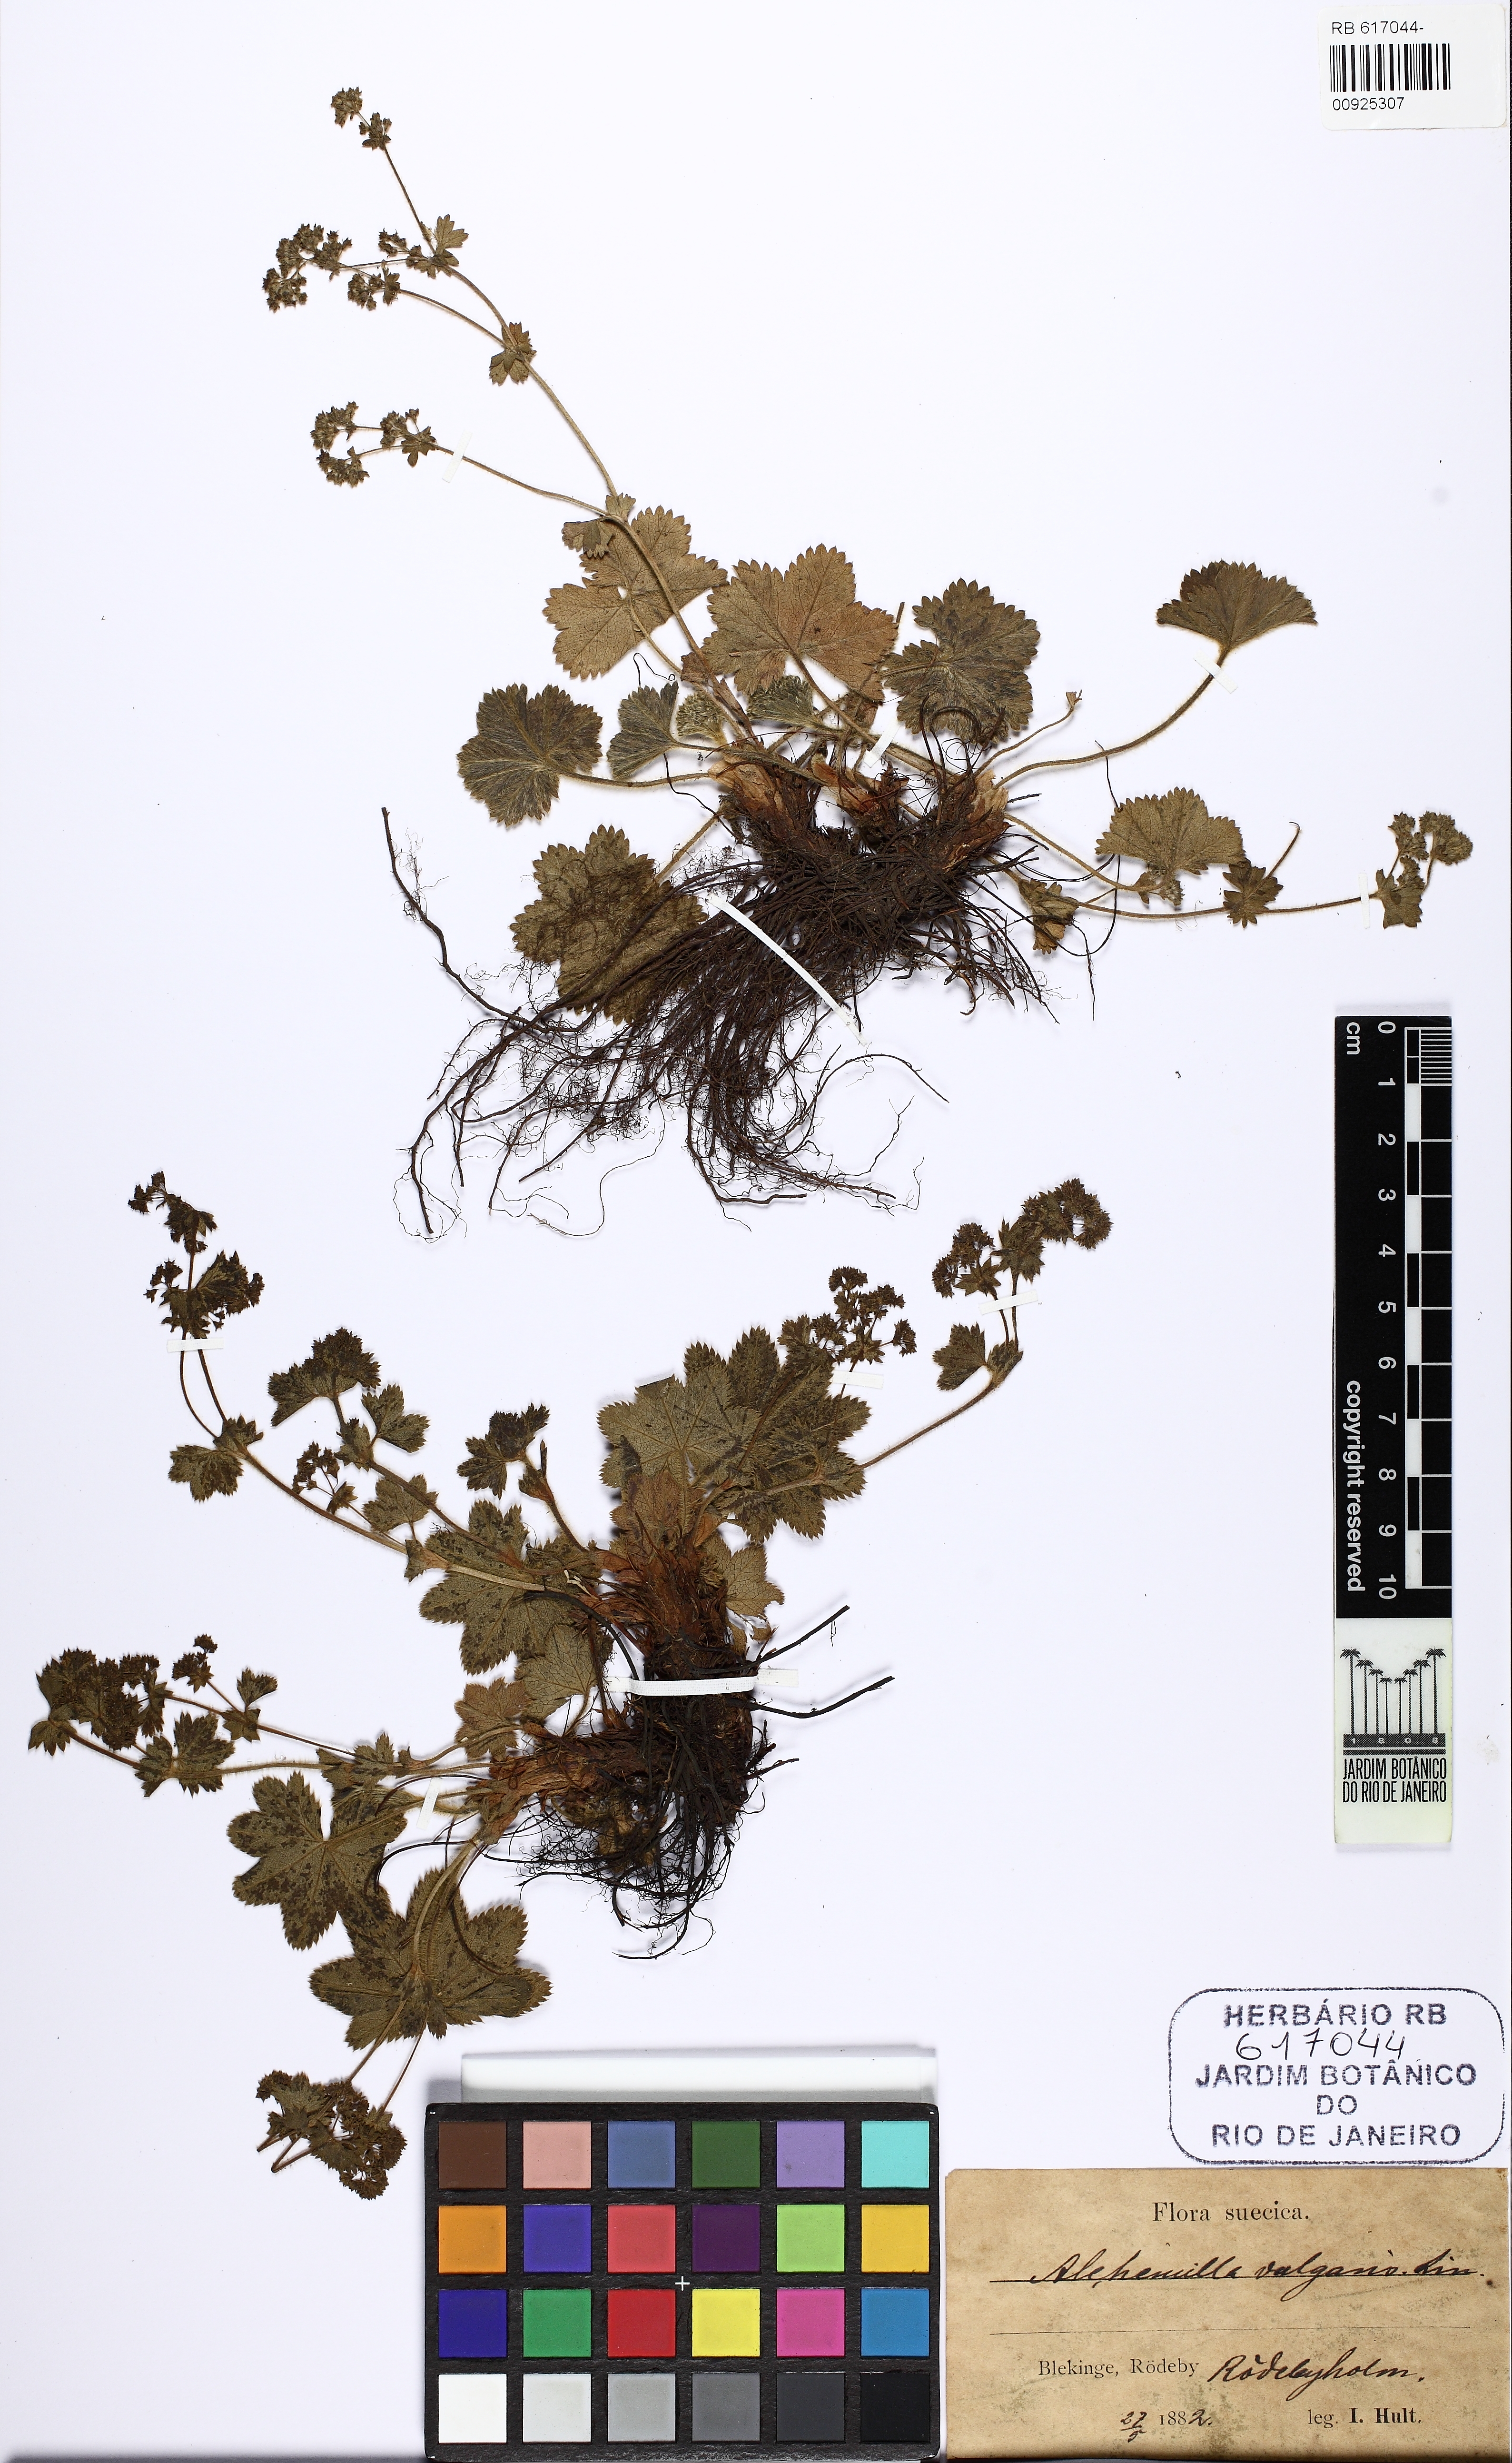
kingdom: Plantae
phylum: Tracheophyta
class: Magnoliopsida
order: Rosales
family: Rosaceae
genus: Alchemilla
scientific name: Alchemilla vulgaris
